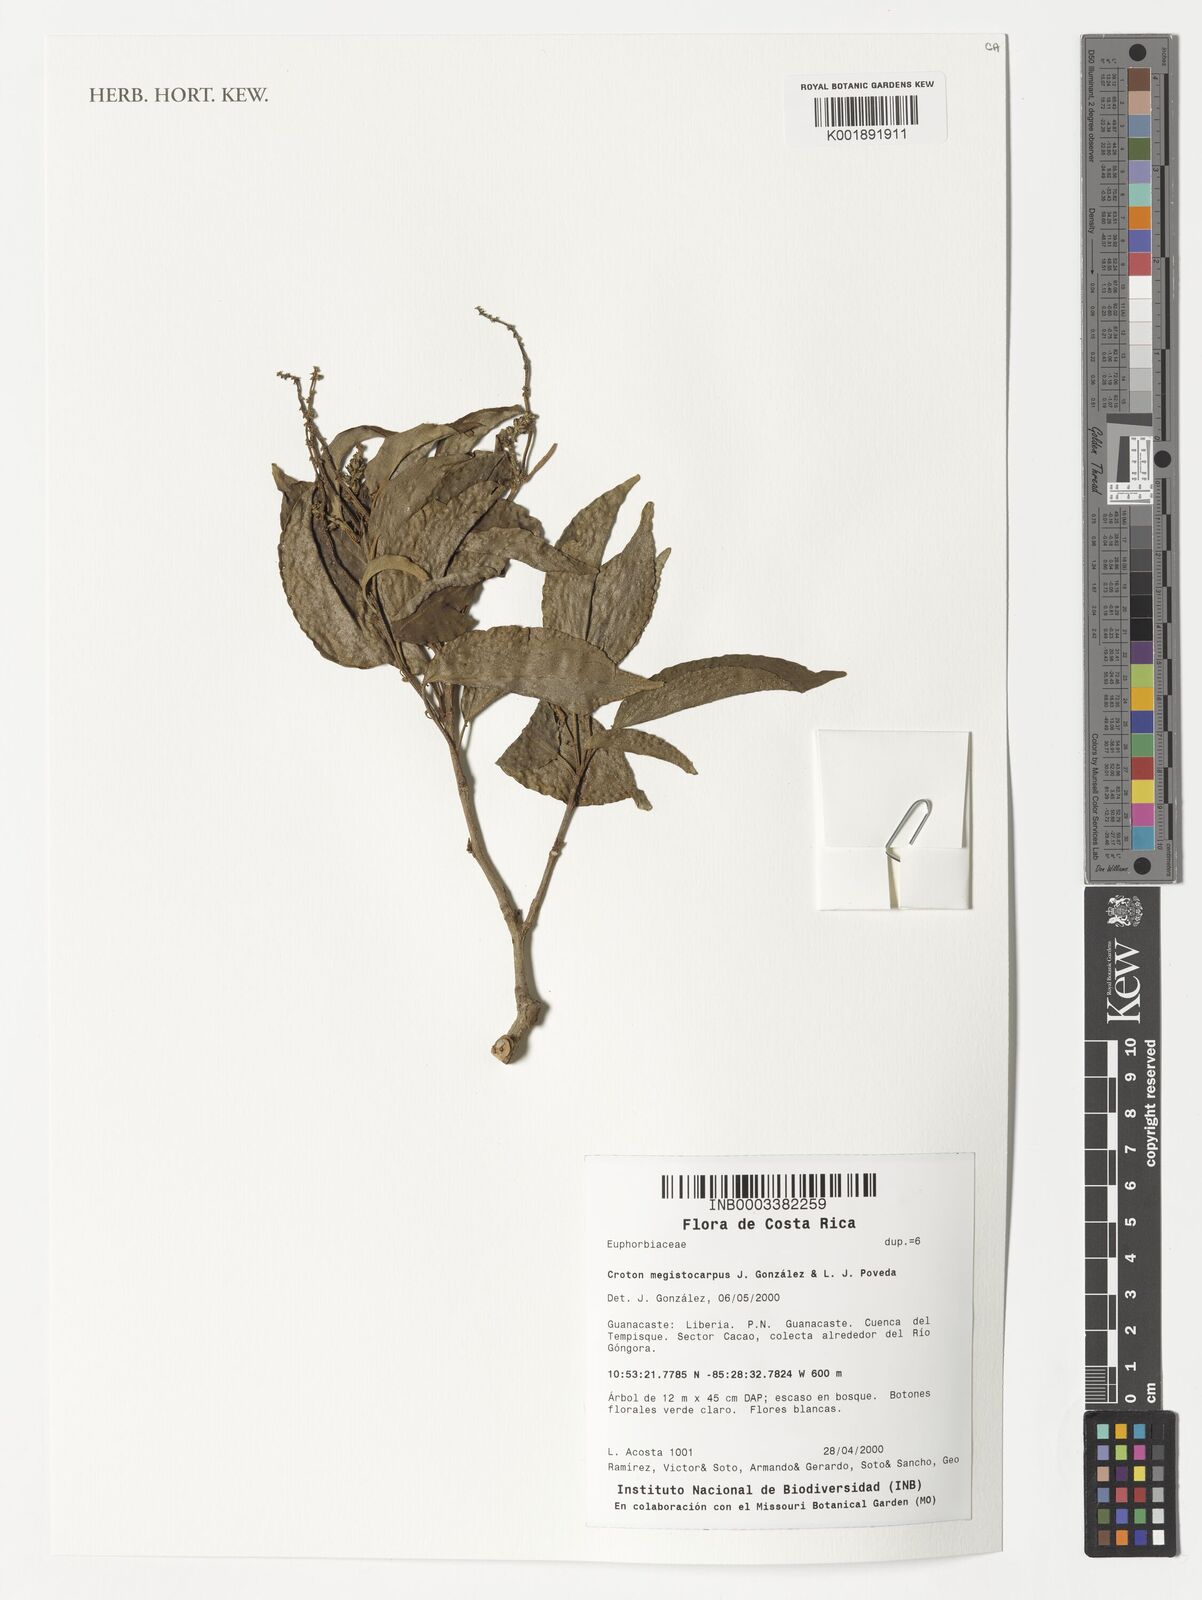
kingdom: Plantae
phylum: Tracheophyta
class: Magnoliopsida
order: Malpighiales
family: Euphorbiaceae
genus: Croton
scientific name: Croton megistocarpus
